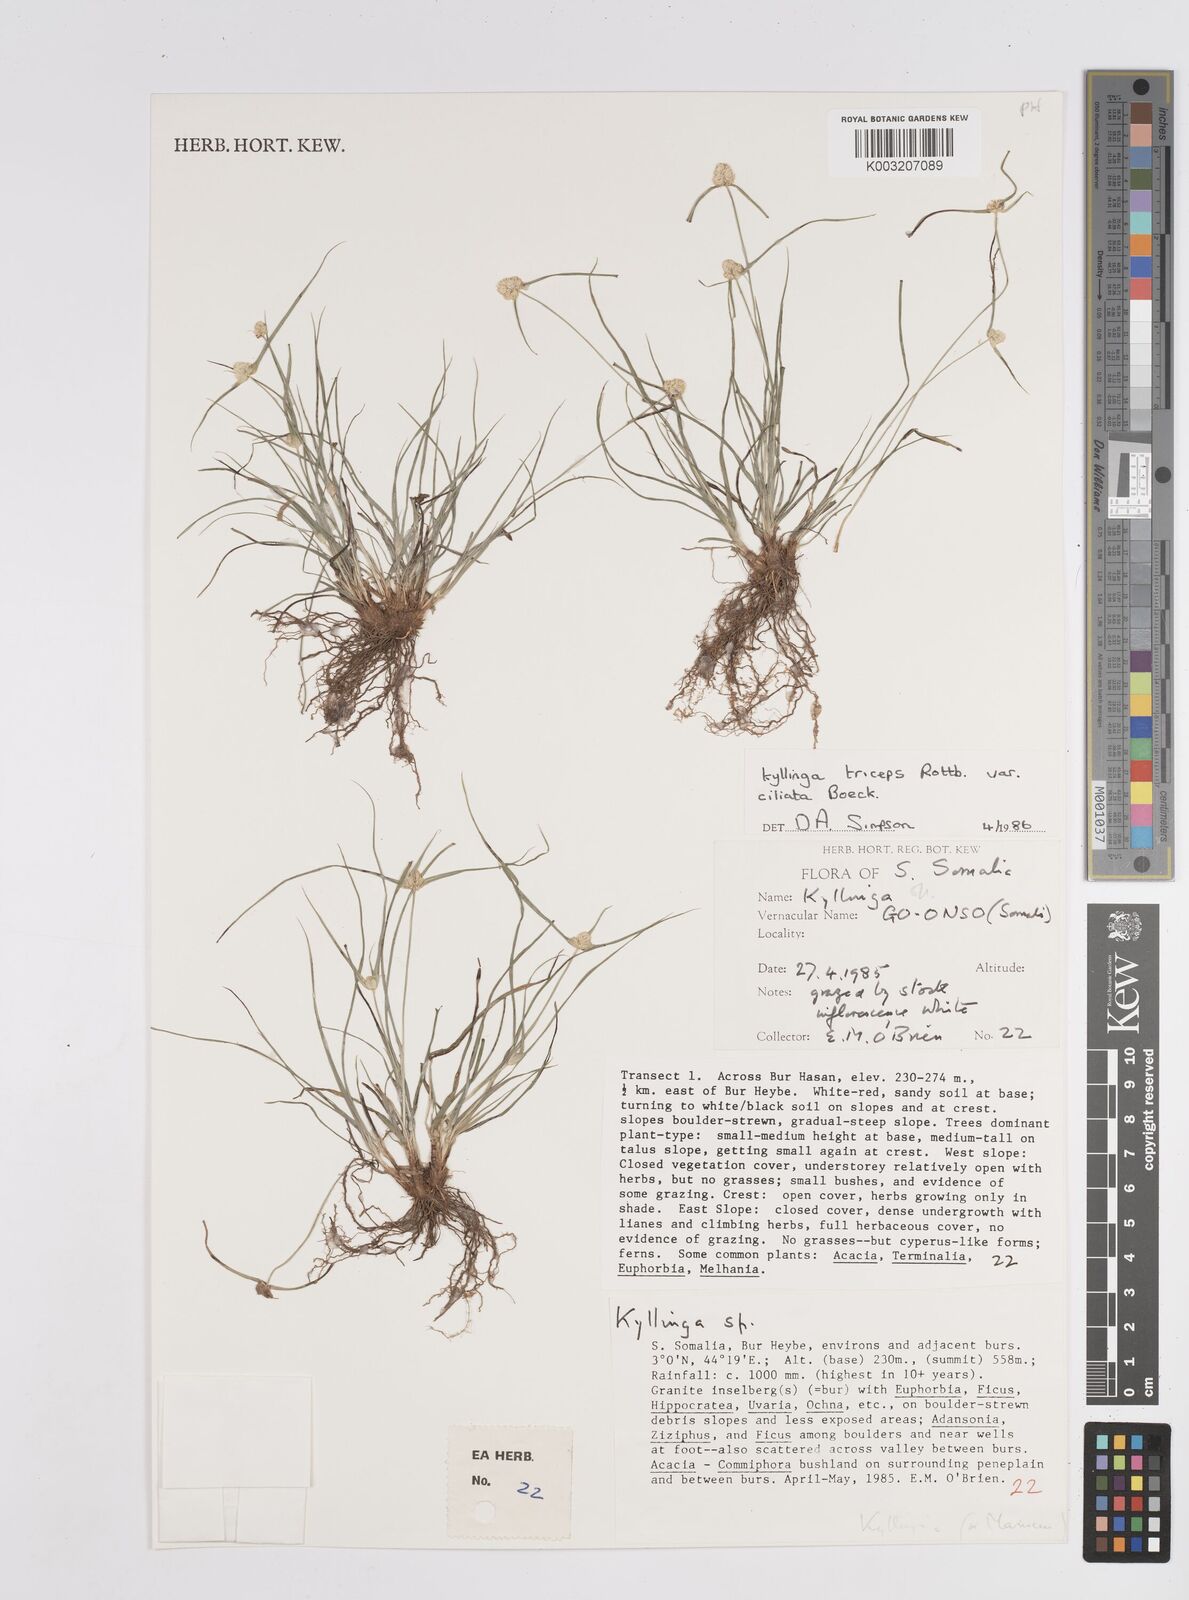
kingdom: Plantae
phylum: Tracheophyta
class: Liliopsida
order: Poales
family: Cyperaceae
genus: Cyperus
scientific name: Cyperus welwitschii
